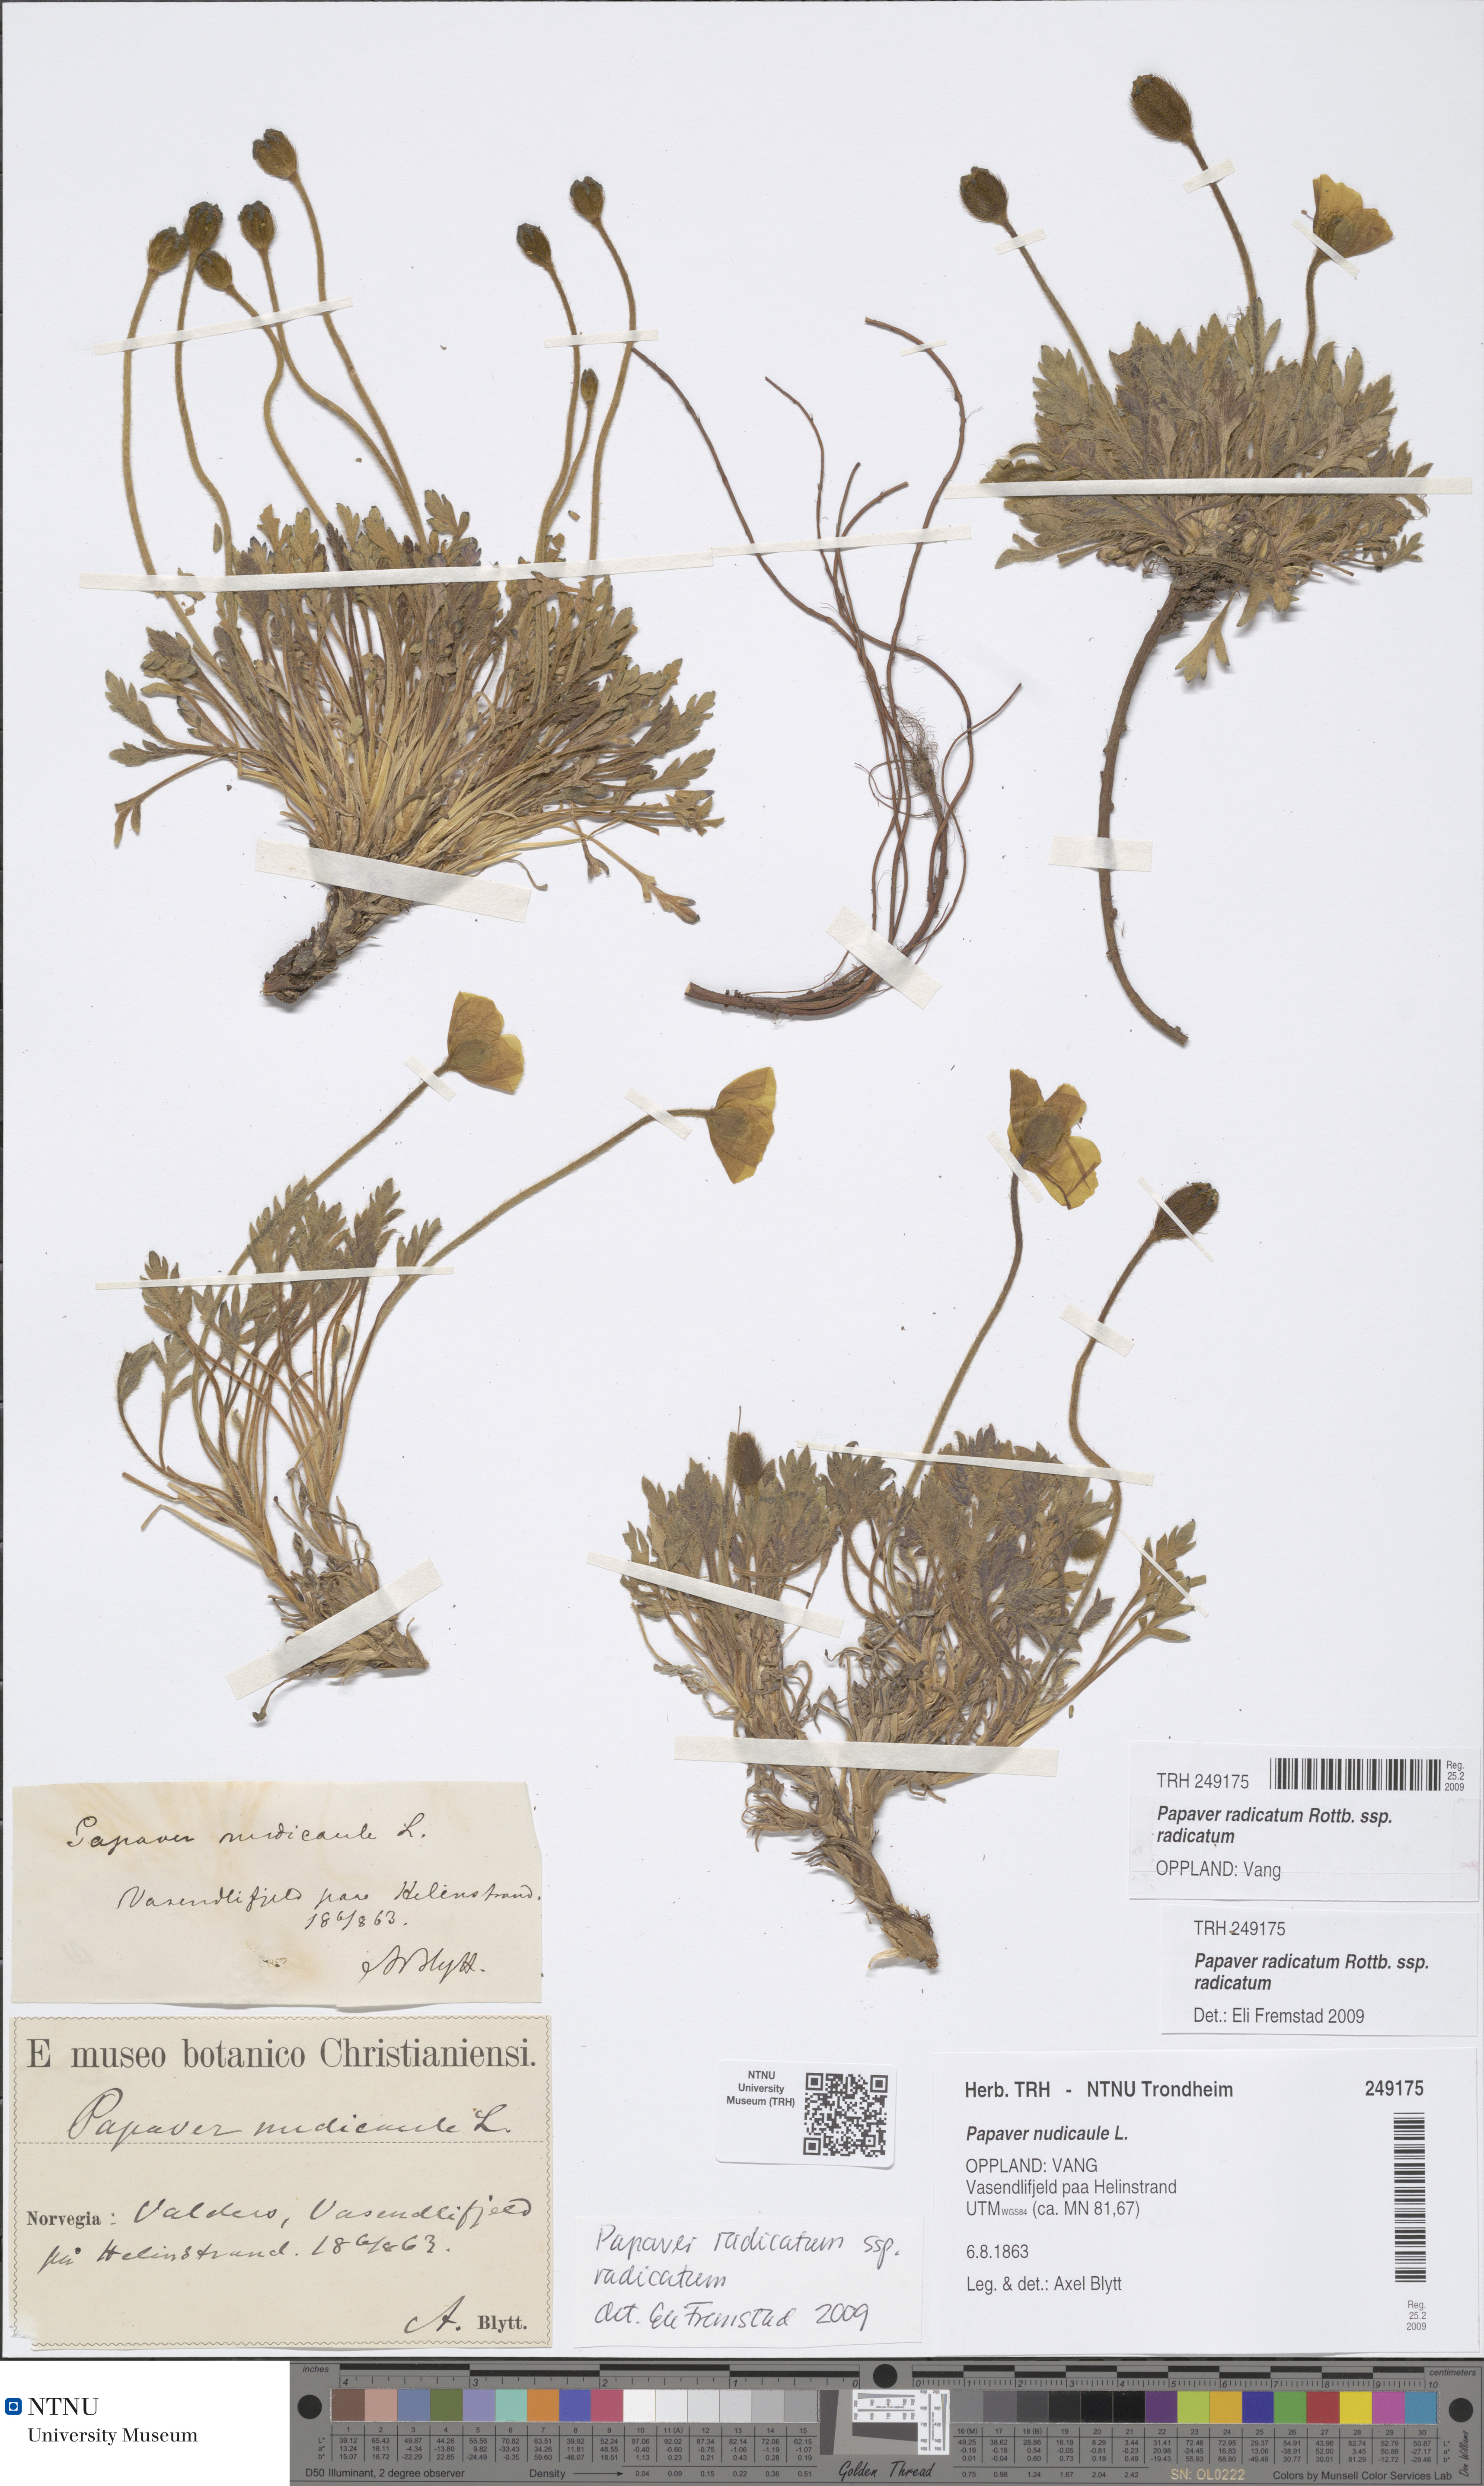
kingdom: Plantae
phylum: Tracheophyta
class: Magnoliopsida
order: Ranunculales
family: Papaveraceae
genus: Papaver
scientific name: Papaver radicatum
